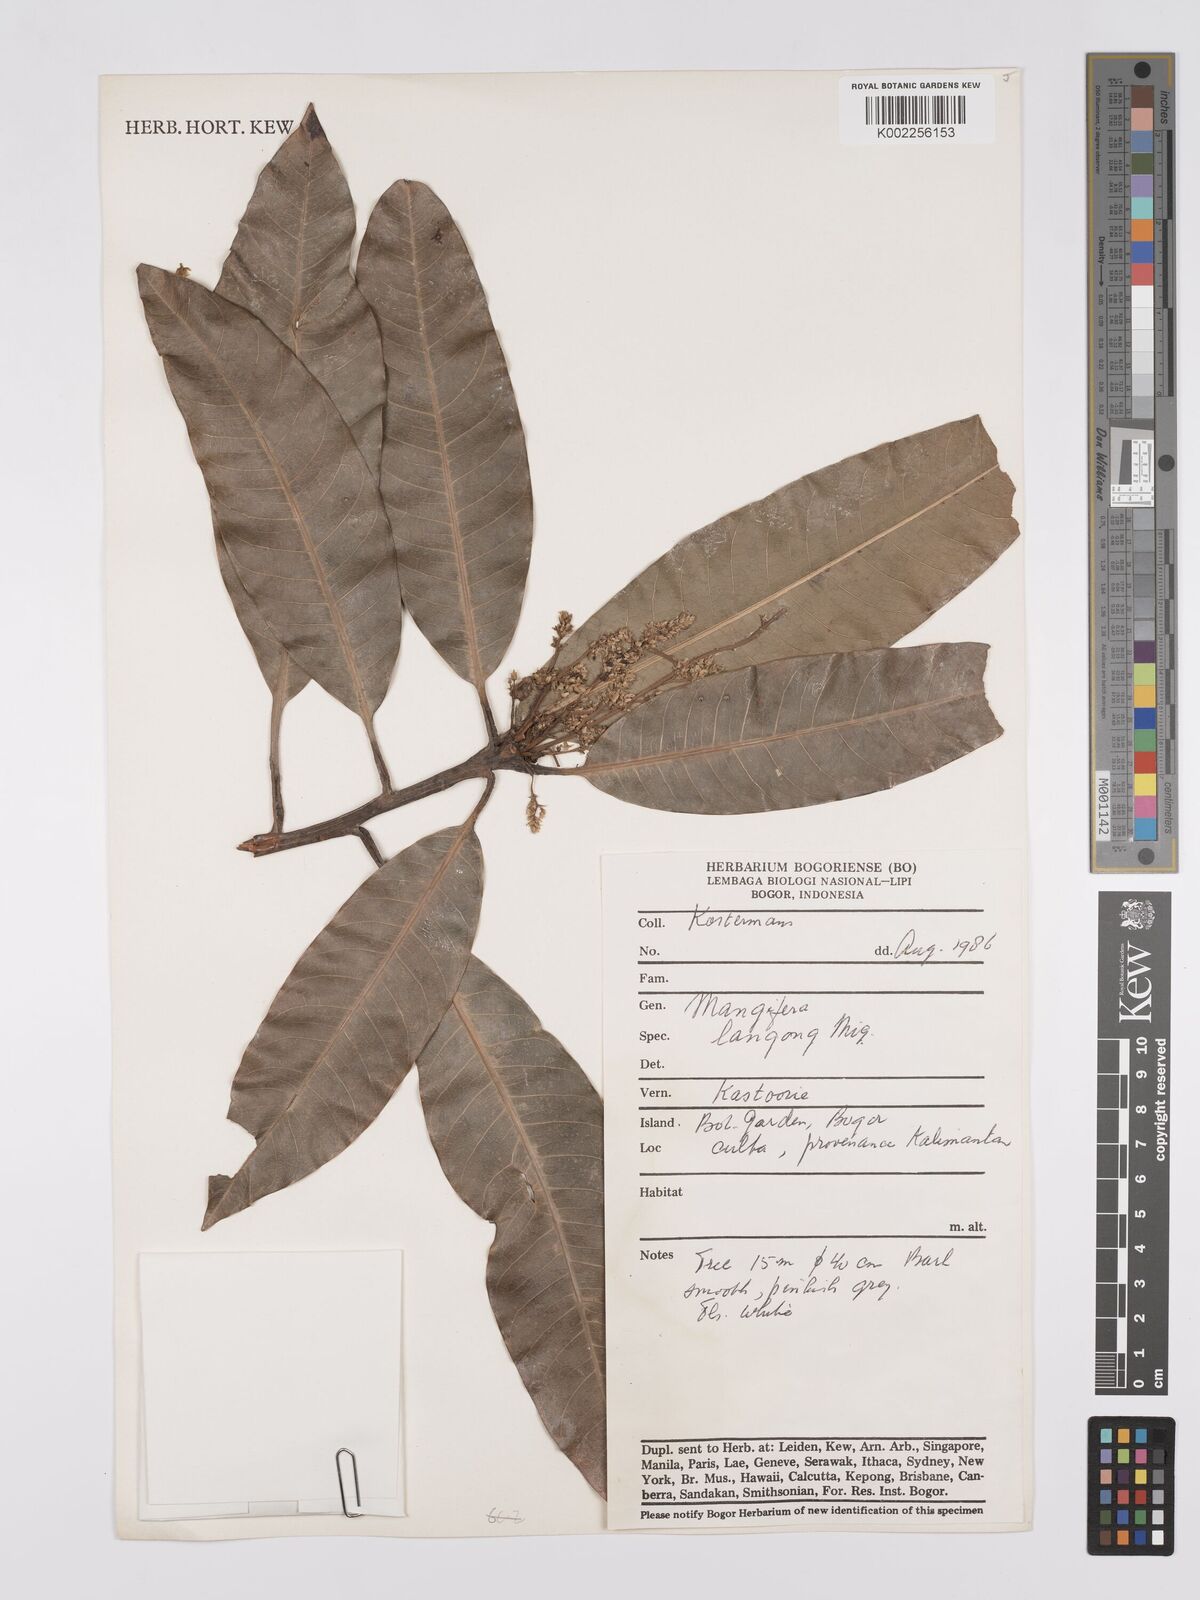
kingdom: Plantae
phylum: Tracheophyta
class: Magnoliopsida
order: Sapindales
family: Anacardiaceae
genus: Mangifera
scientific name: Mangifera quadrifida
